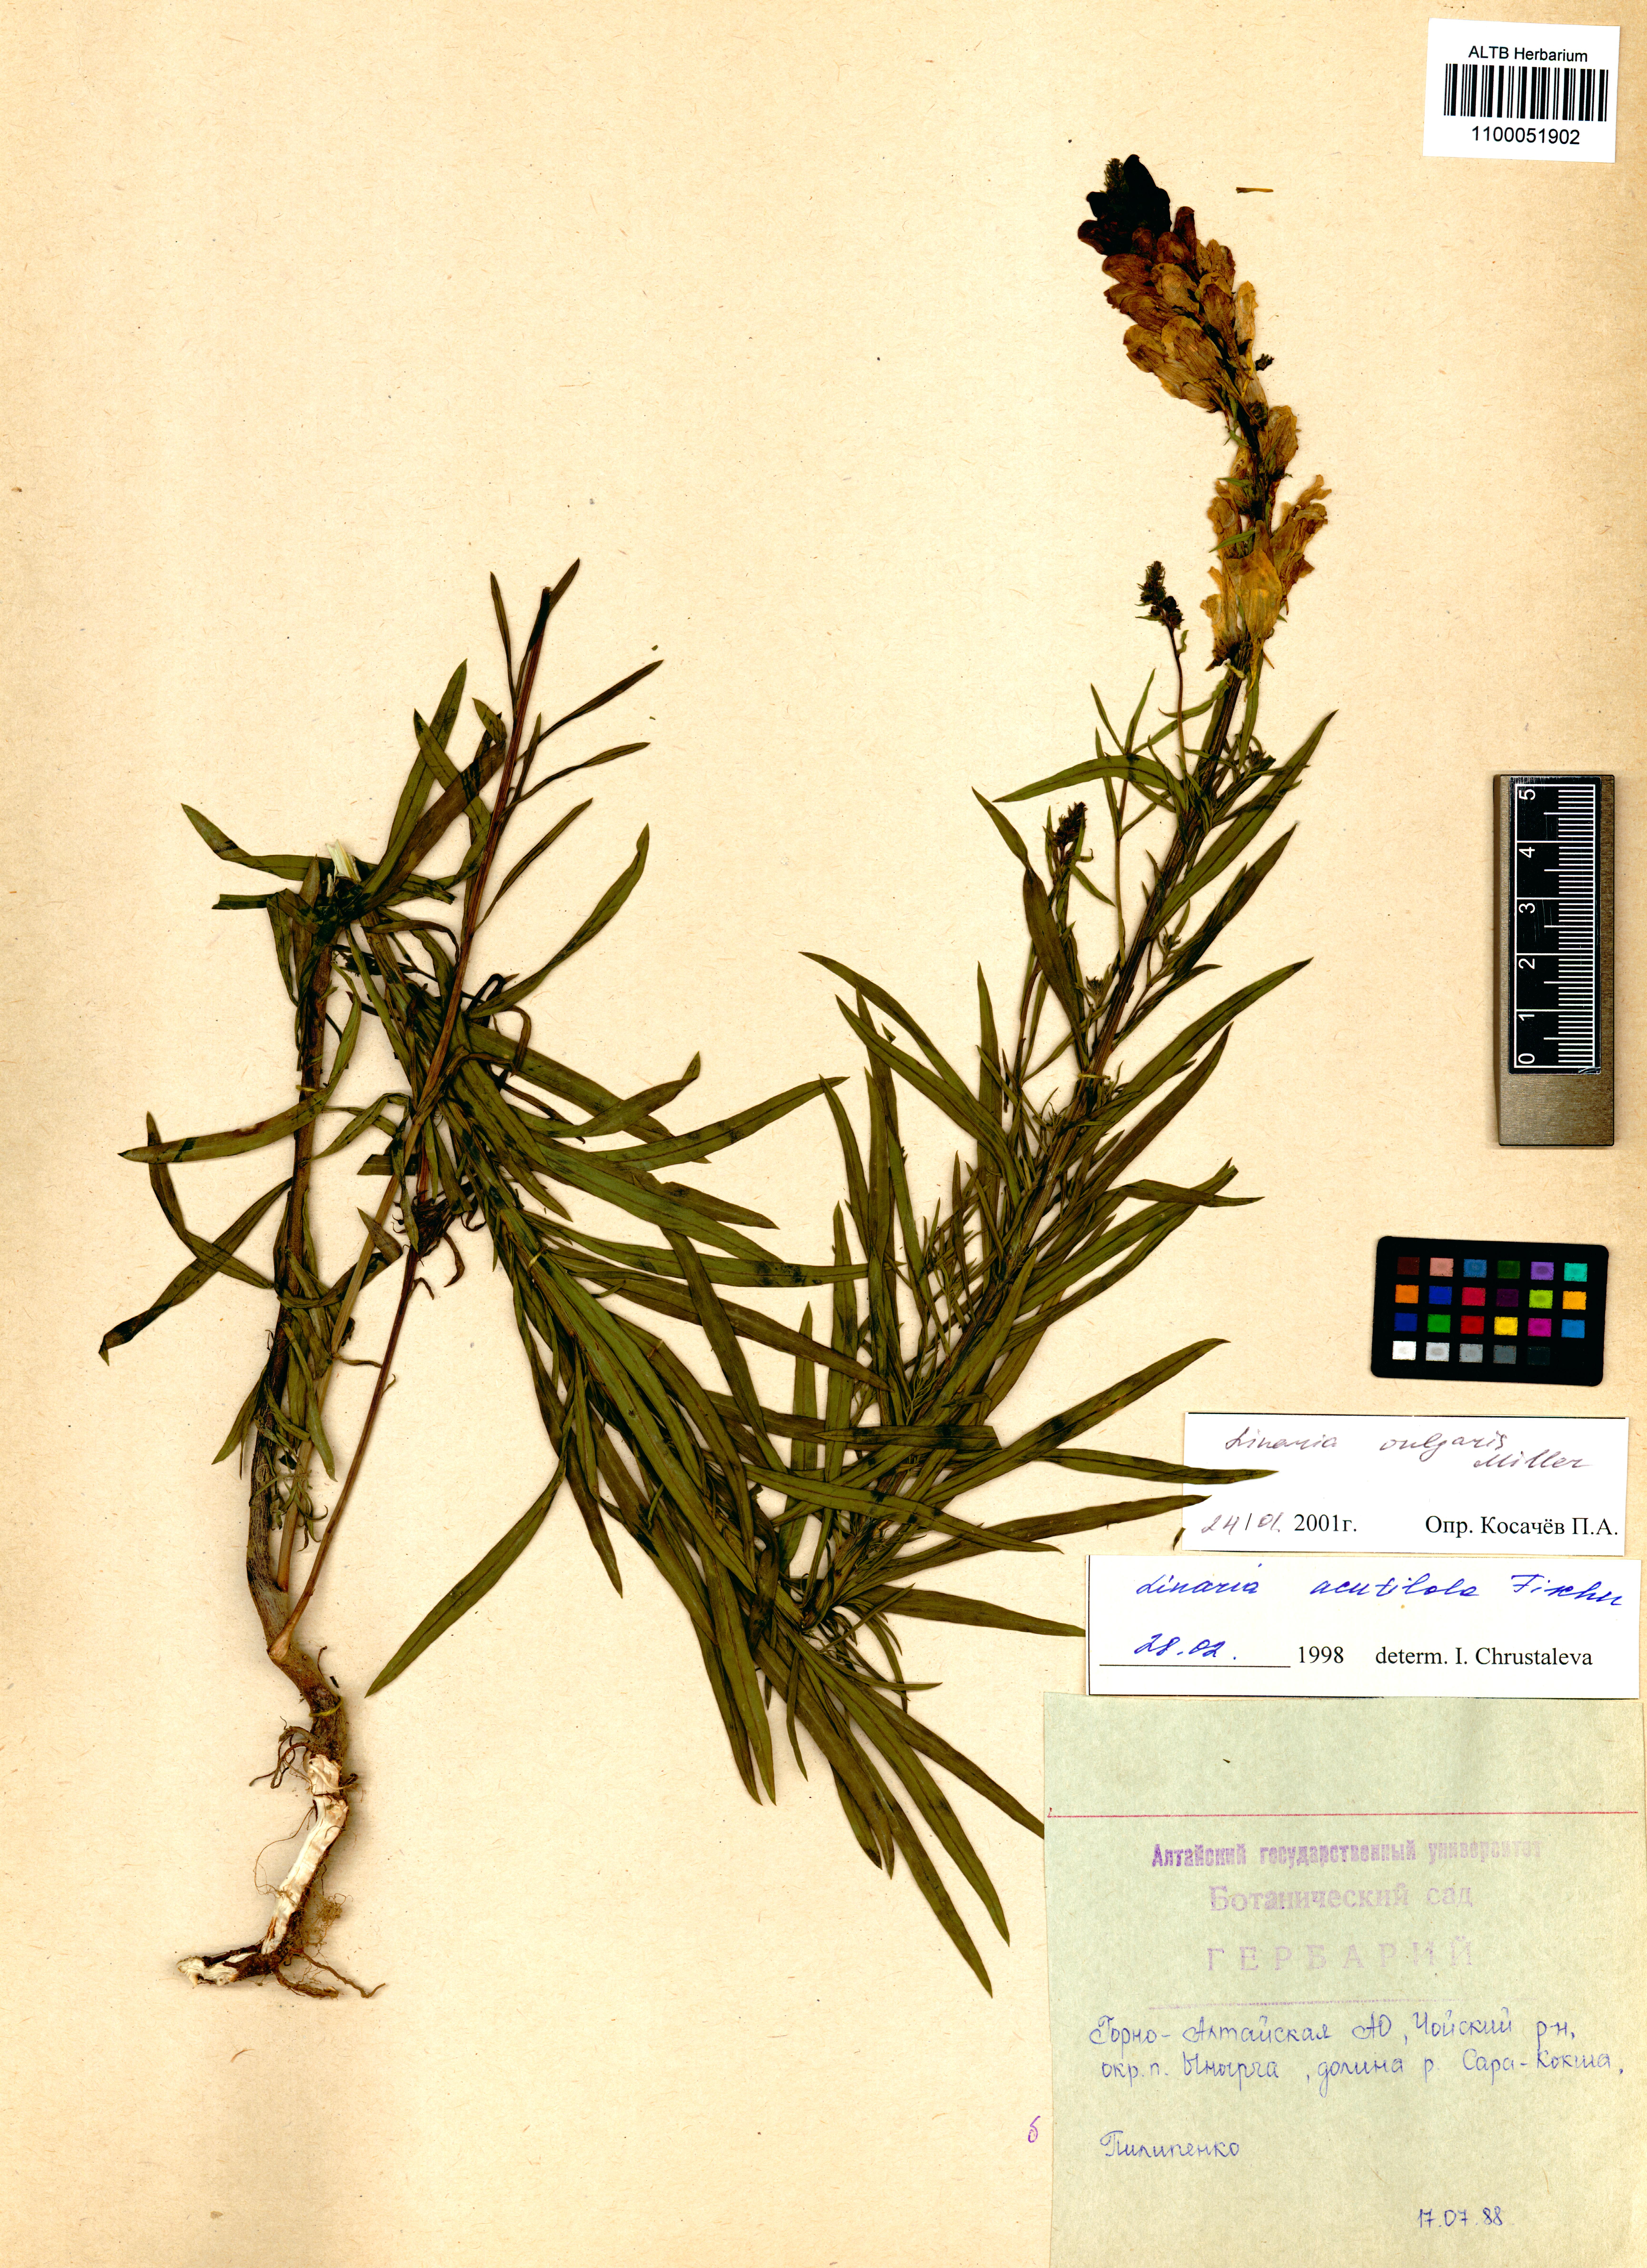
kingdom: Plantae
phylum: Tracheophyta
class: Magnoliopsida
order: Lamiales
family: Plantaginaceae
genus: Linaria
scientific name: Linaria vulgaris
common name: Butter and eggs
